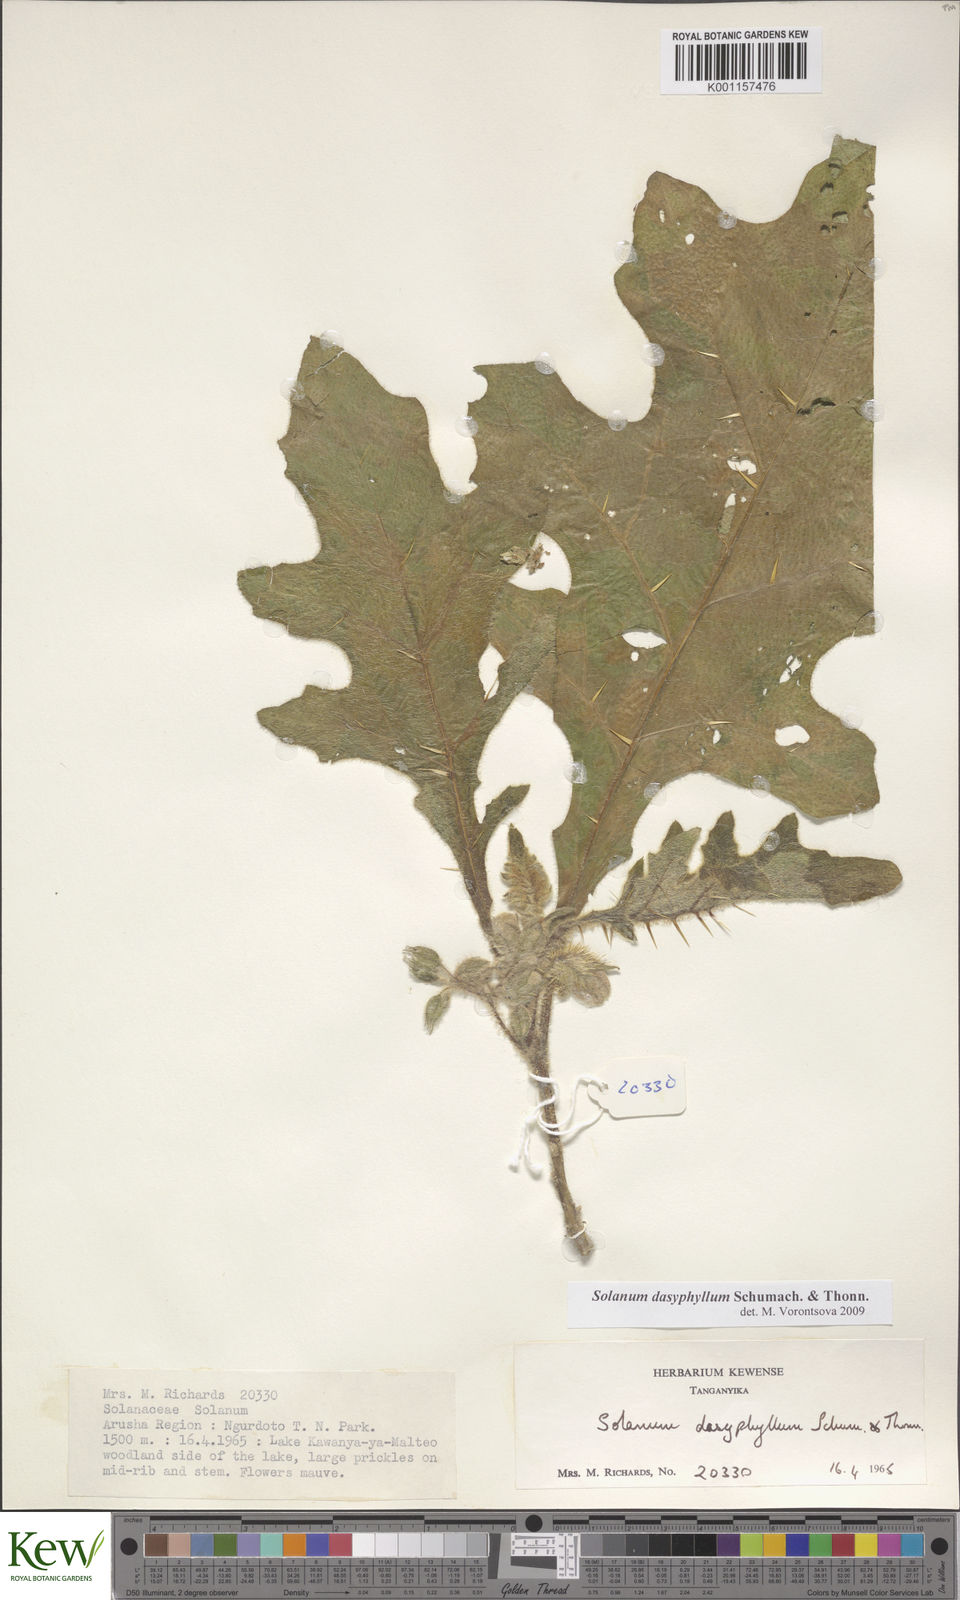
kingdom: Plantae
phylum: Tracheophyta
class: Magnoliopsida
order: Solanales
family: Solanaceae
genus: Solanum
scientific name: Solanum dasyphyllum
